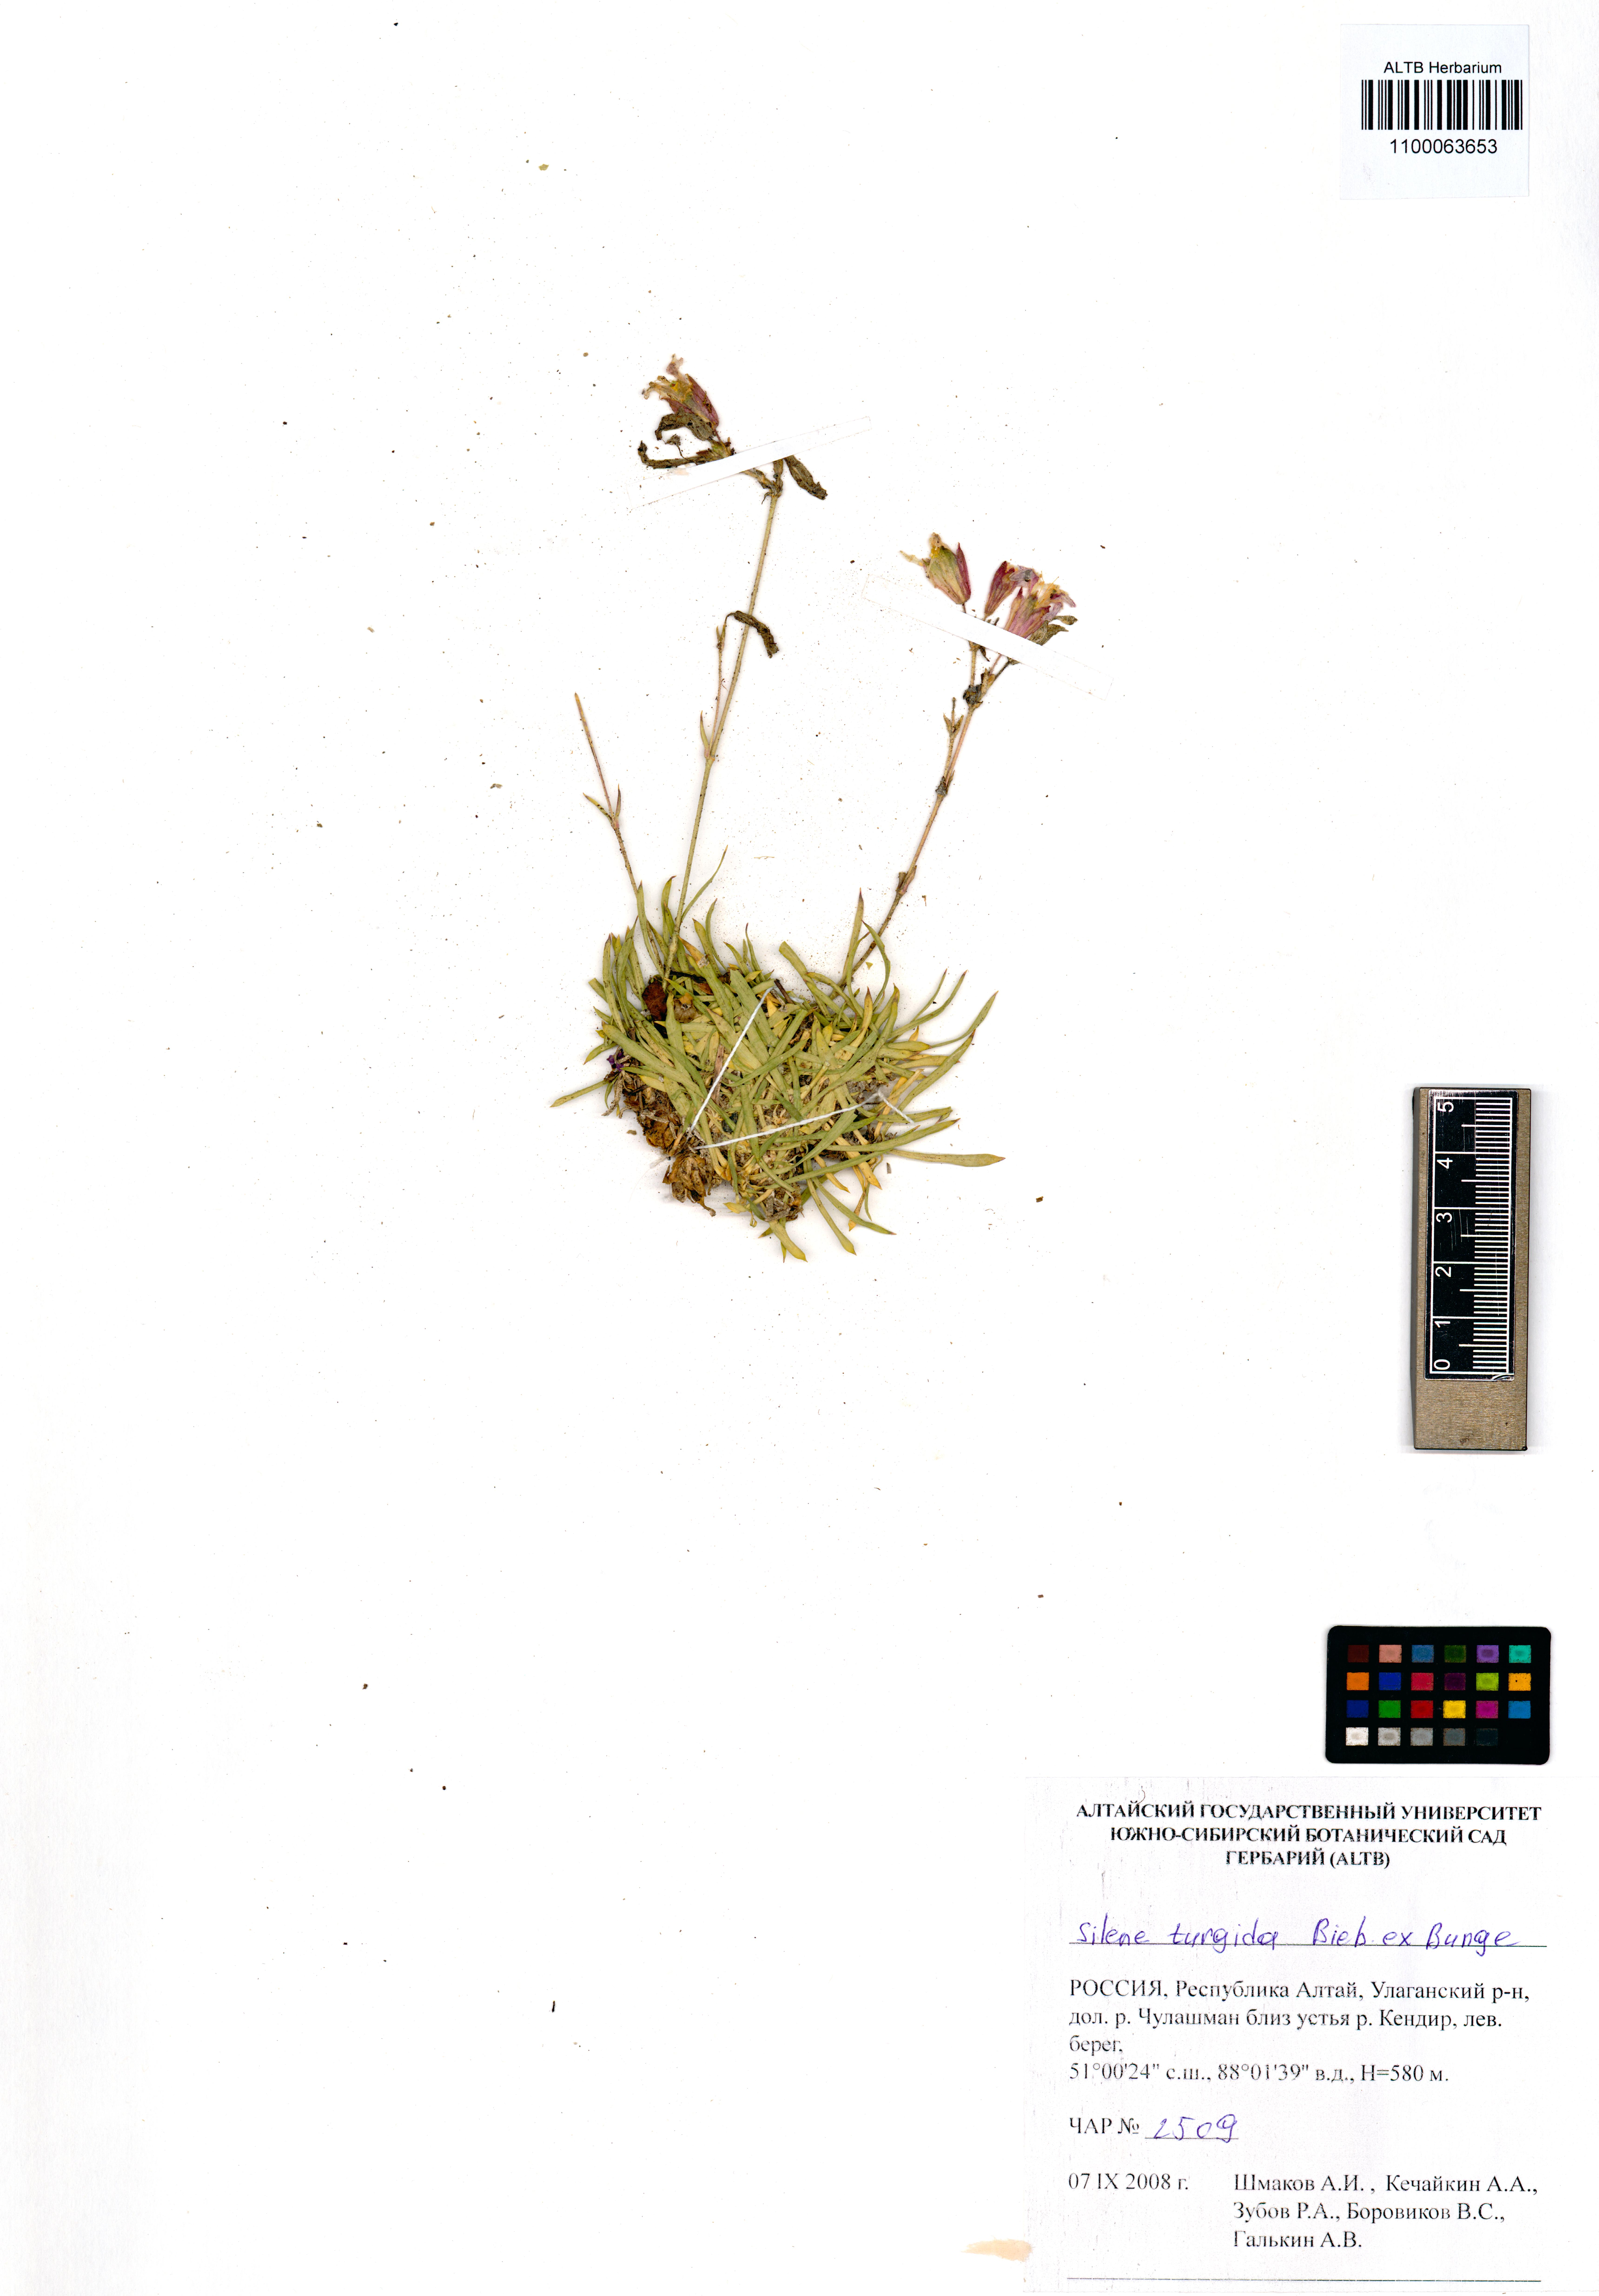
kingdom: Plantae
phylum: Tracheophyta
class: Magnoliopsida
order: Caryophyllales
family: Caryophyllaceae
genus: Silene
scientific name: Silene turgida
